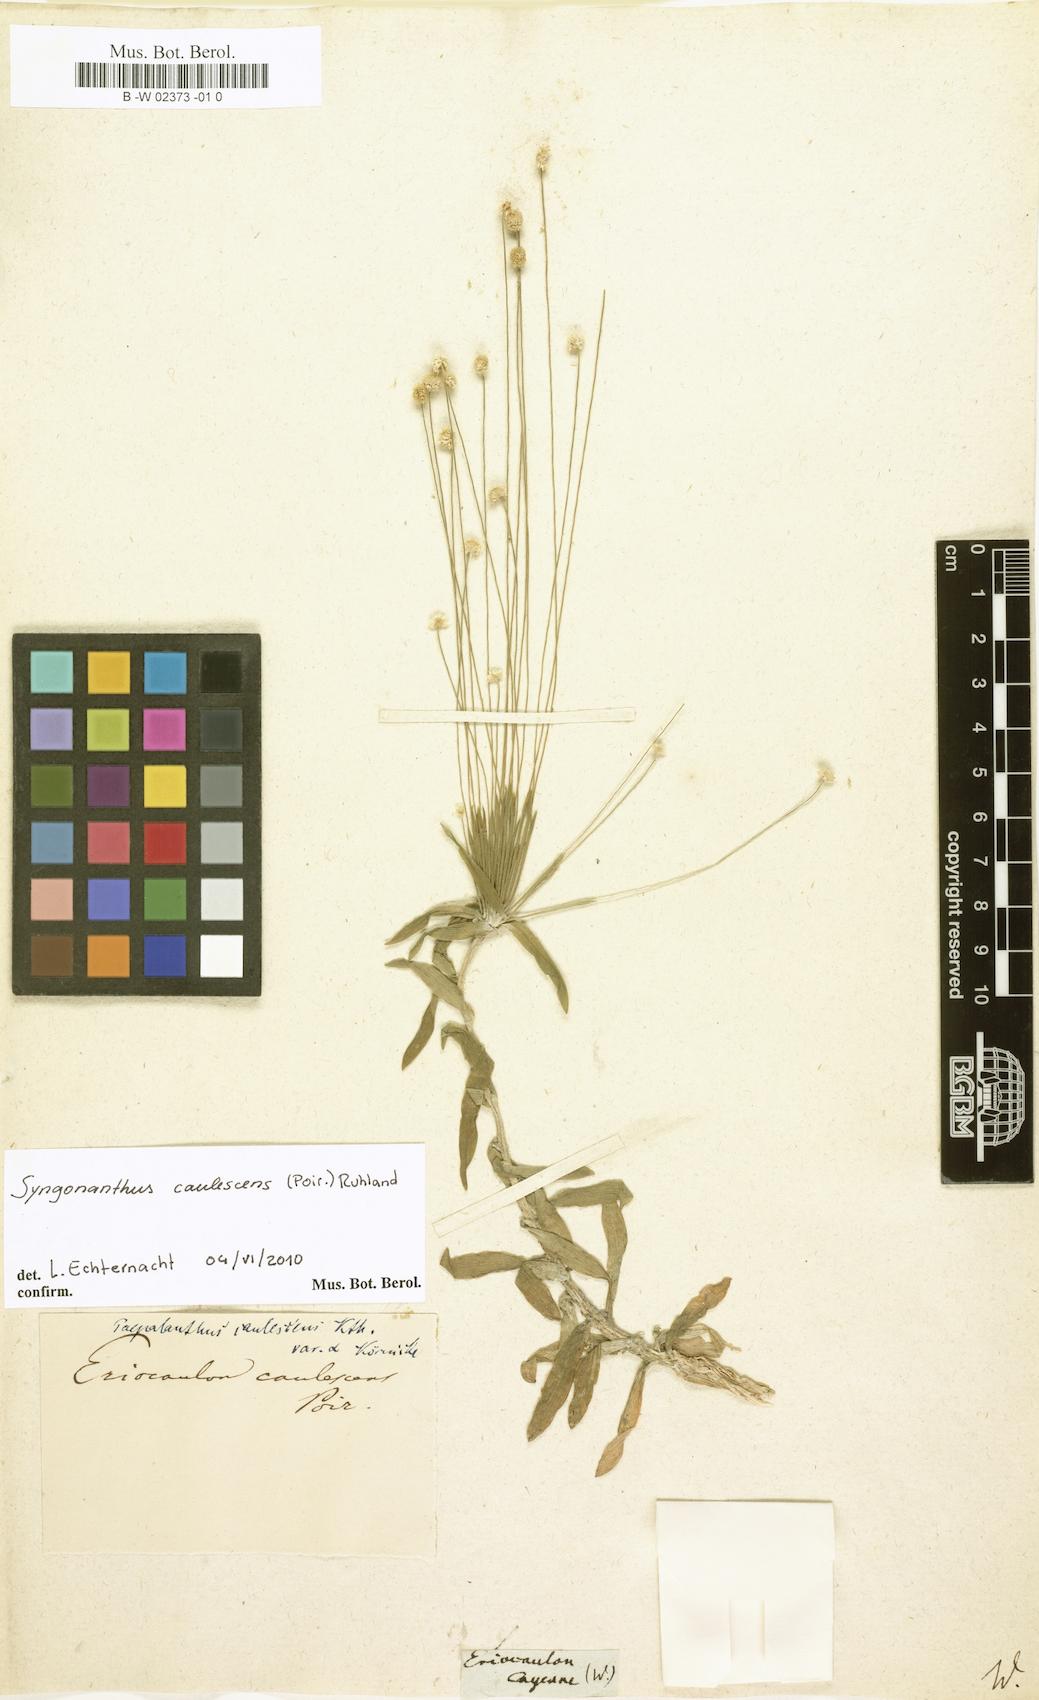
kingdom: Plantae
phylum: Tracheophyta
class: Liliopsida
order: Poales
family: Eriocaulaceae
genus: Eriocaulon
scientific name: Eriocaulon
